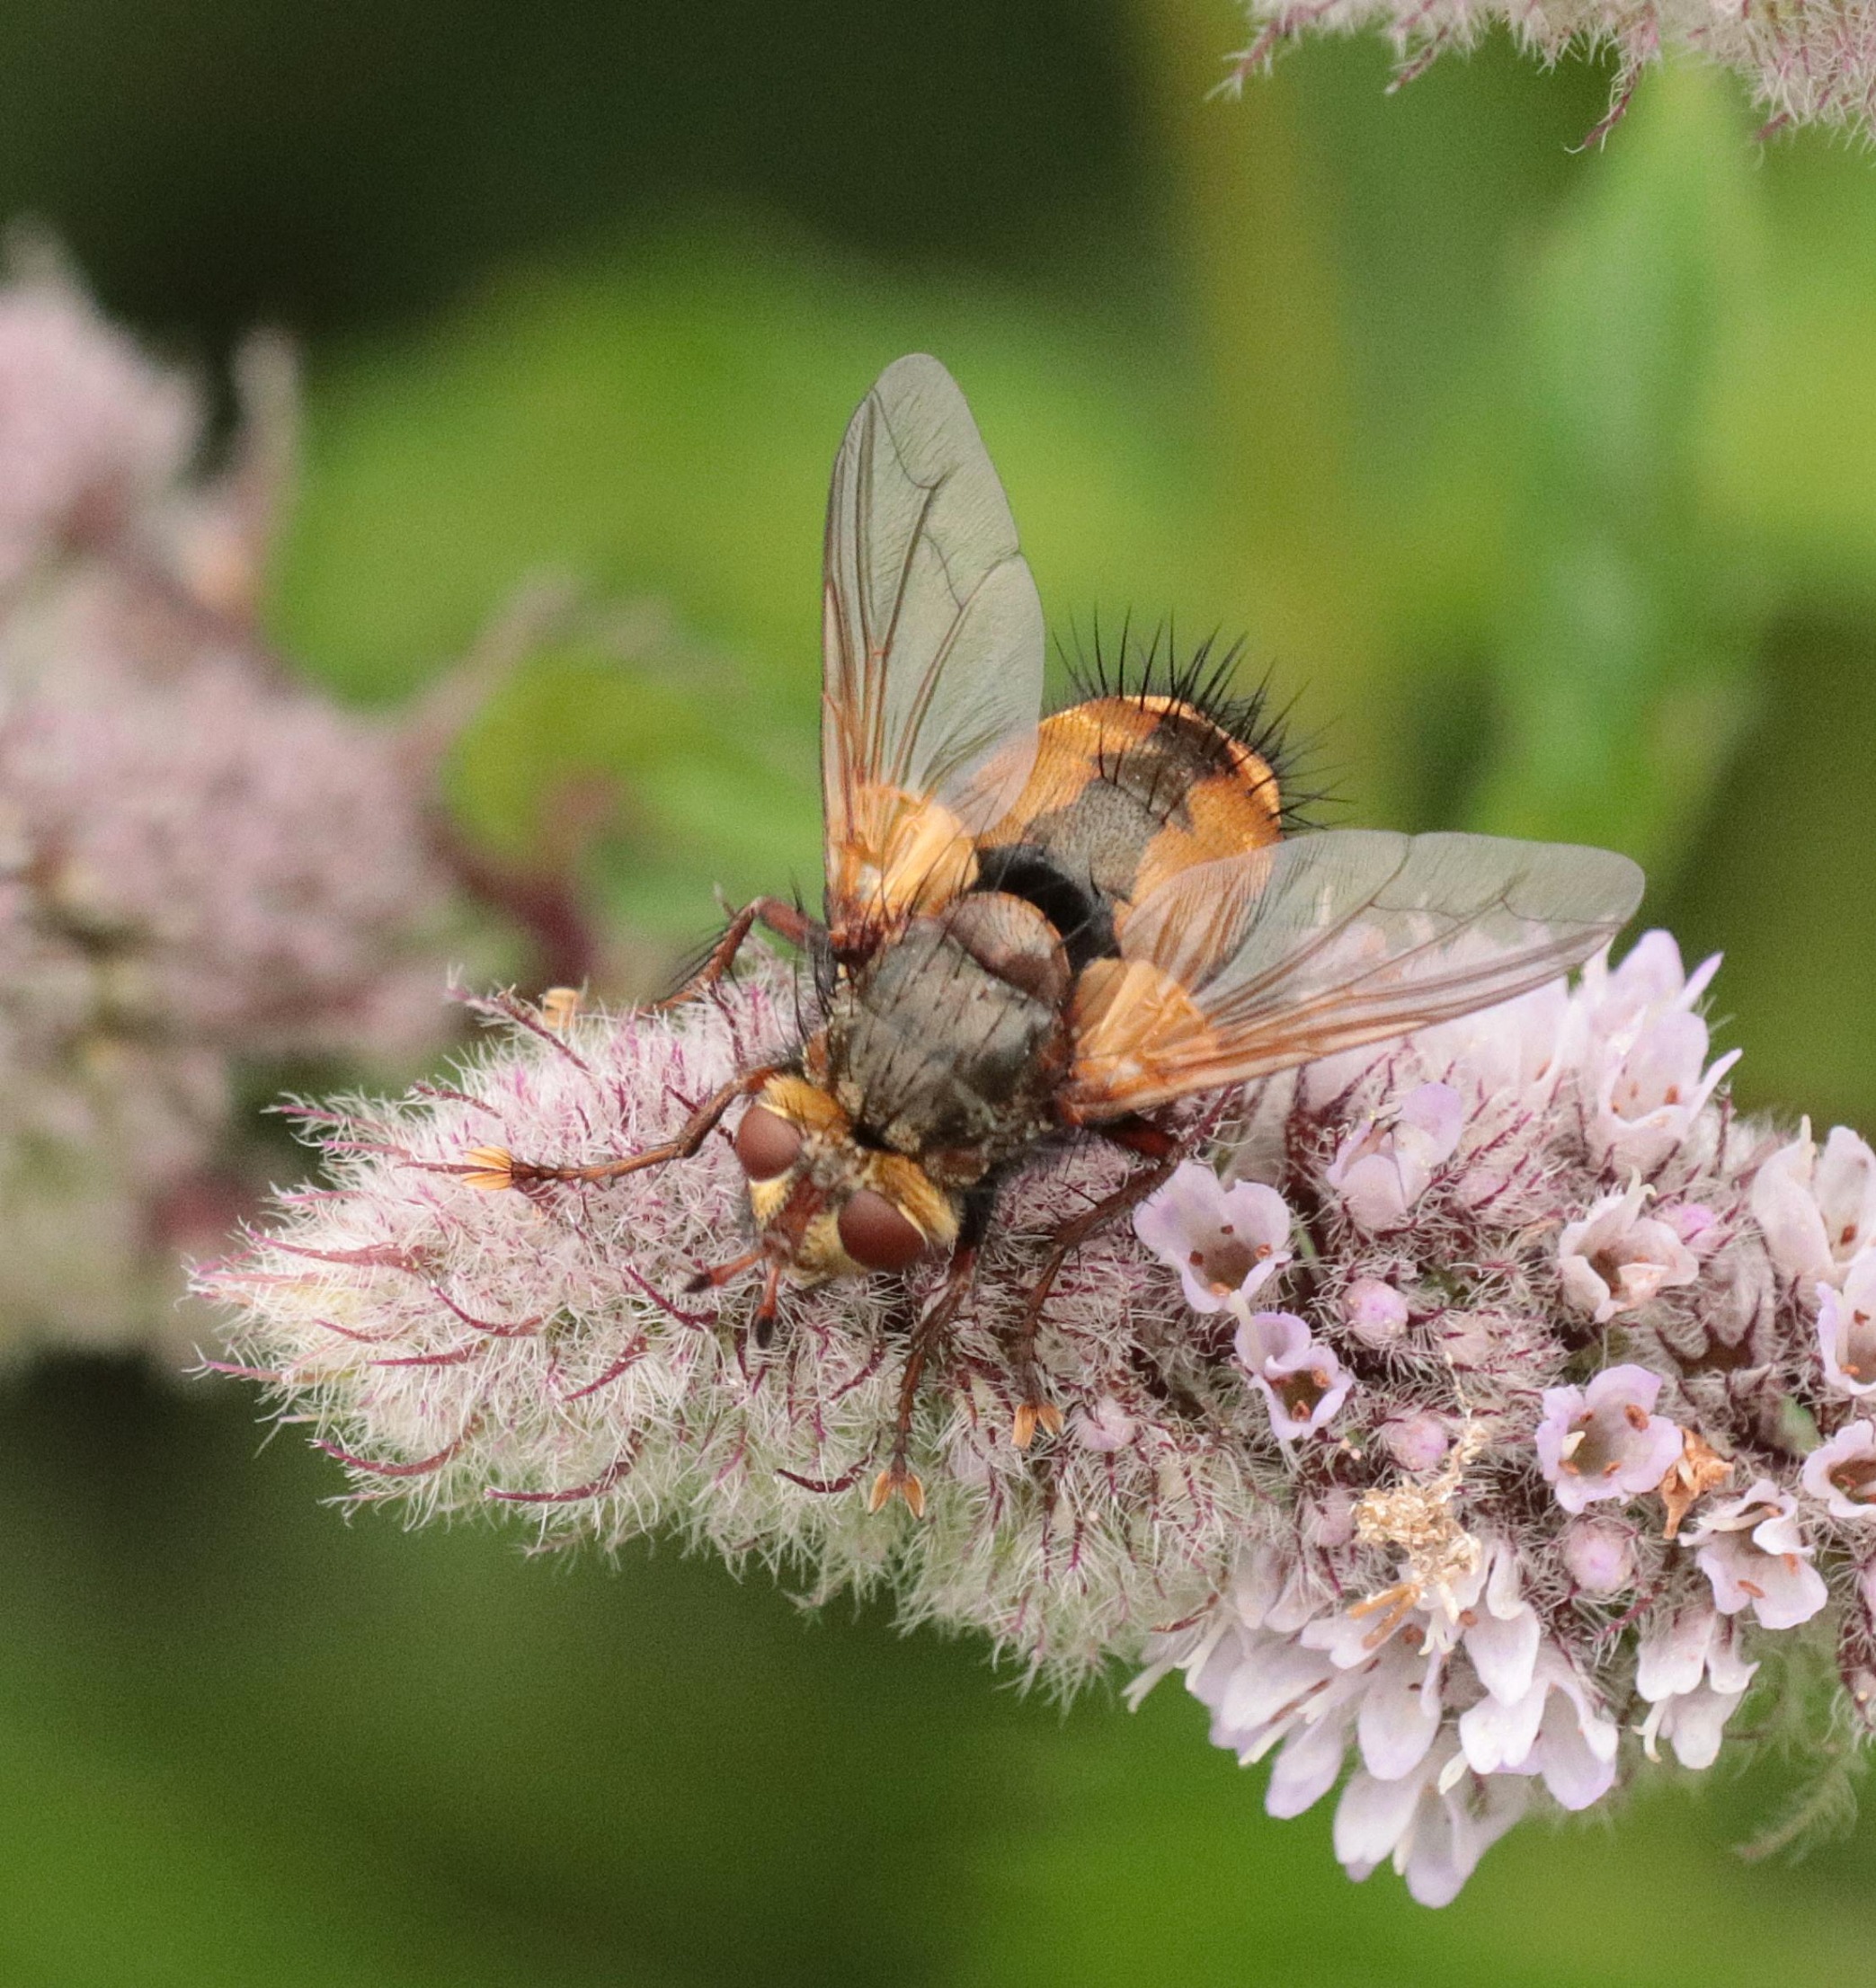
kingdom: Animalia
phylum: Arthropoda
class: Insecta
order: Diptera
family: Tachinidae
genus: Tachina
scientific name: Tachina fera
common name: Mellemfluen oskar
